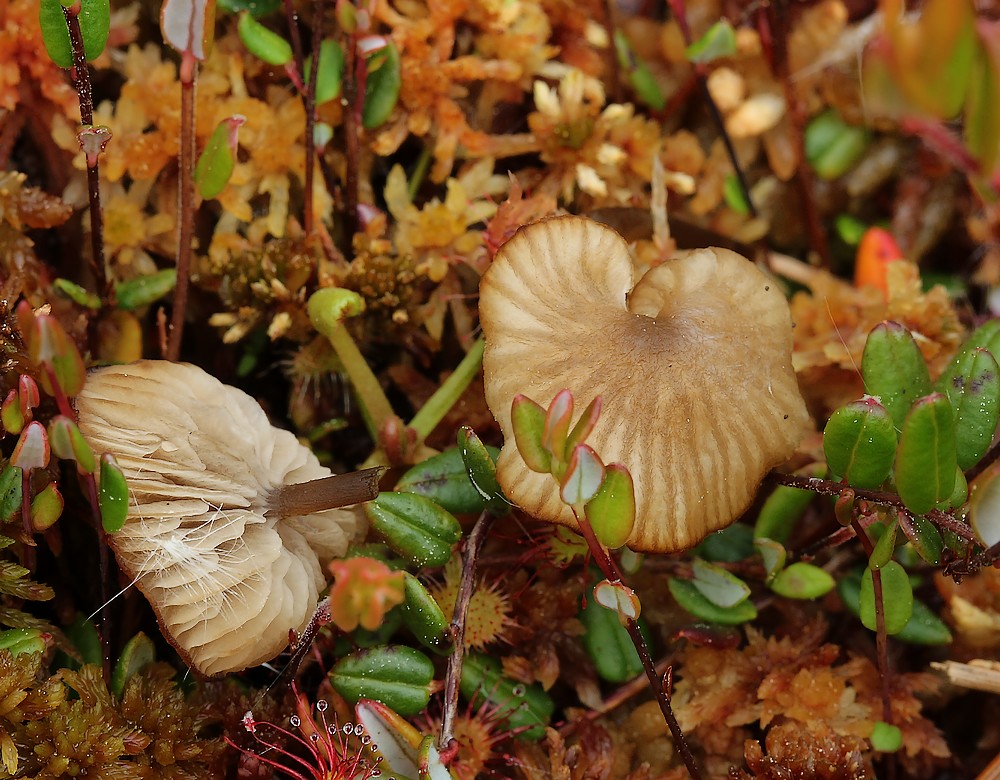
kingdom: Fungi
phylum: Basidiomycota
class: Agaricomycetes
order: Agaricales
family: Lyophyllaceae
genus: Sphagnurus
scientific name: Sphagnurus paluster
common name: tørvemos-gråblad
